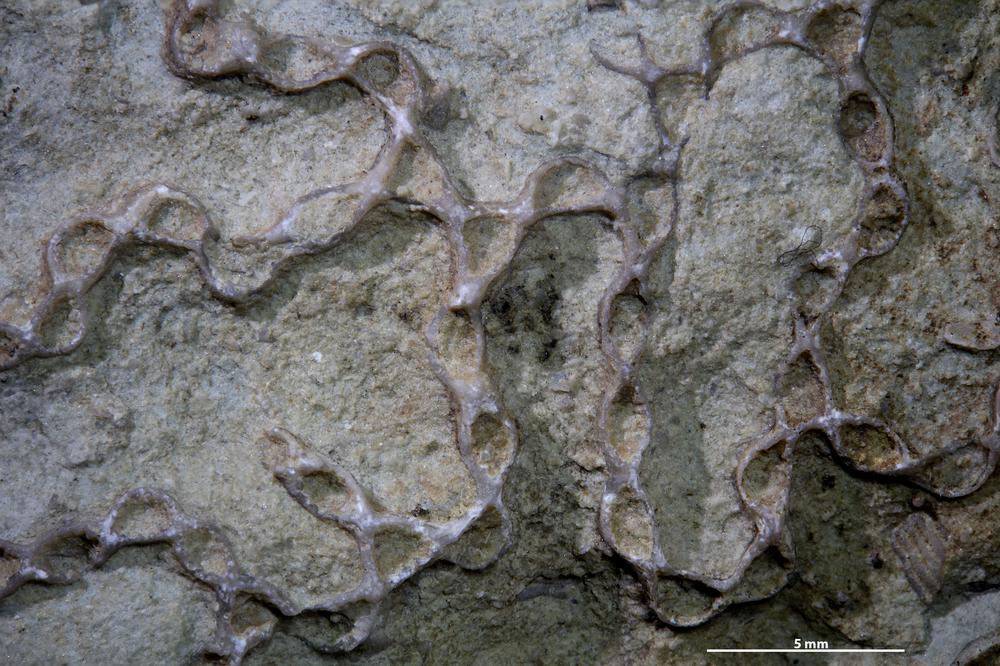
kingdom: Animalia
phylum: Cnidaria
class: Anthozoa
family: Cateniporidae
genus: Catenipora
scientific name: Catenipora
